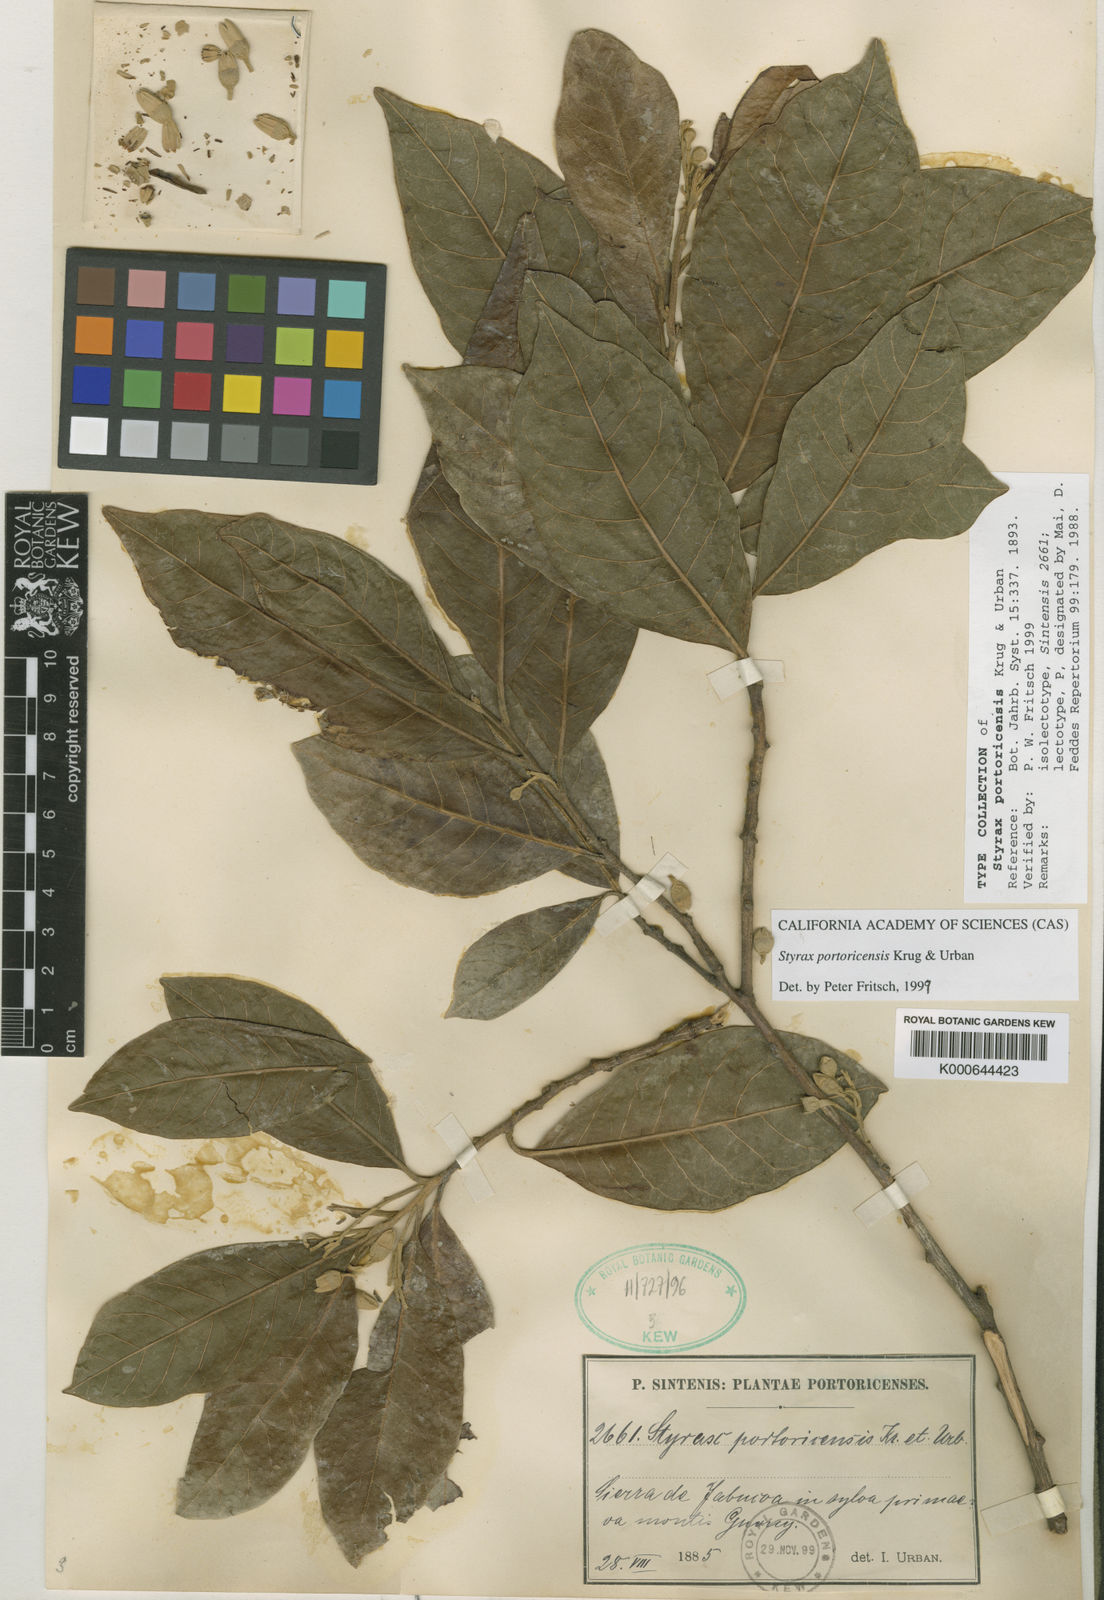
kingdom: Plantae
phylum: Tracheophyta
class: Magnoliopsida
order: Ericales
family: Styracaceae
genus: Styrax
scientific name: Styrax portoricensis
